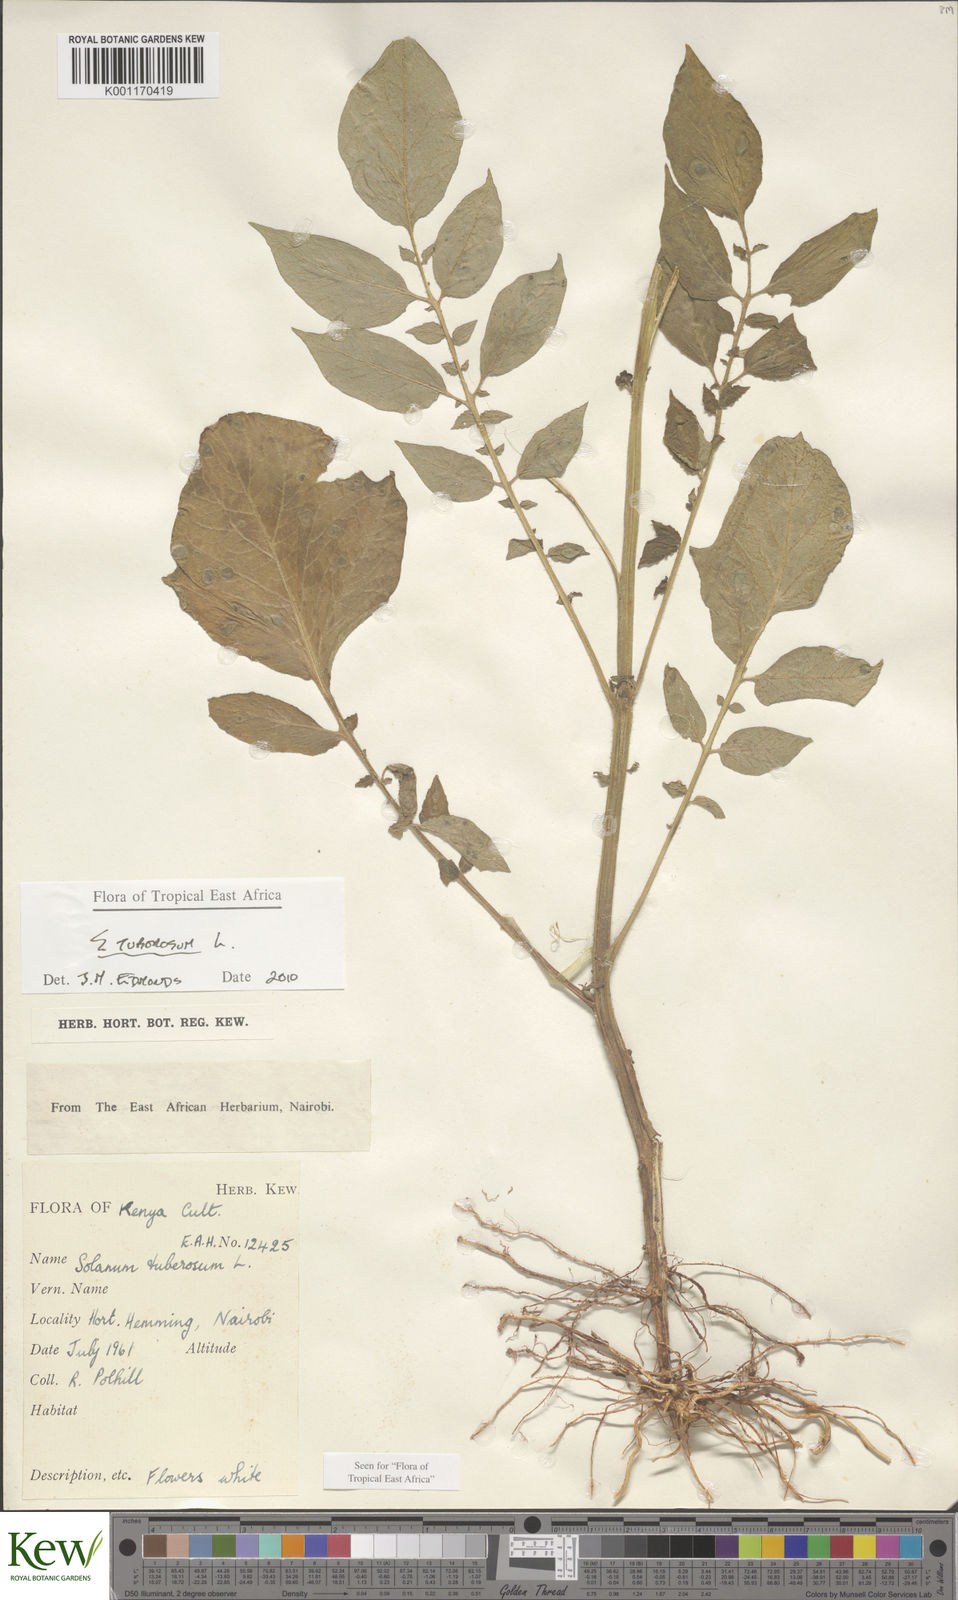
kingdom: Plantae
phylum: Tracheophyta
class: Magnoliopsida
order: Solanales
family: Solanaceae
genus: Solanum
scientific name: Solanum tuberosum
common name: Potato
